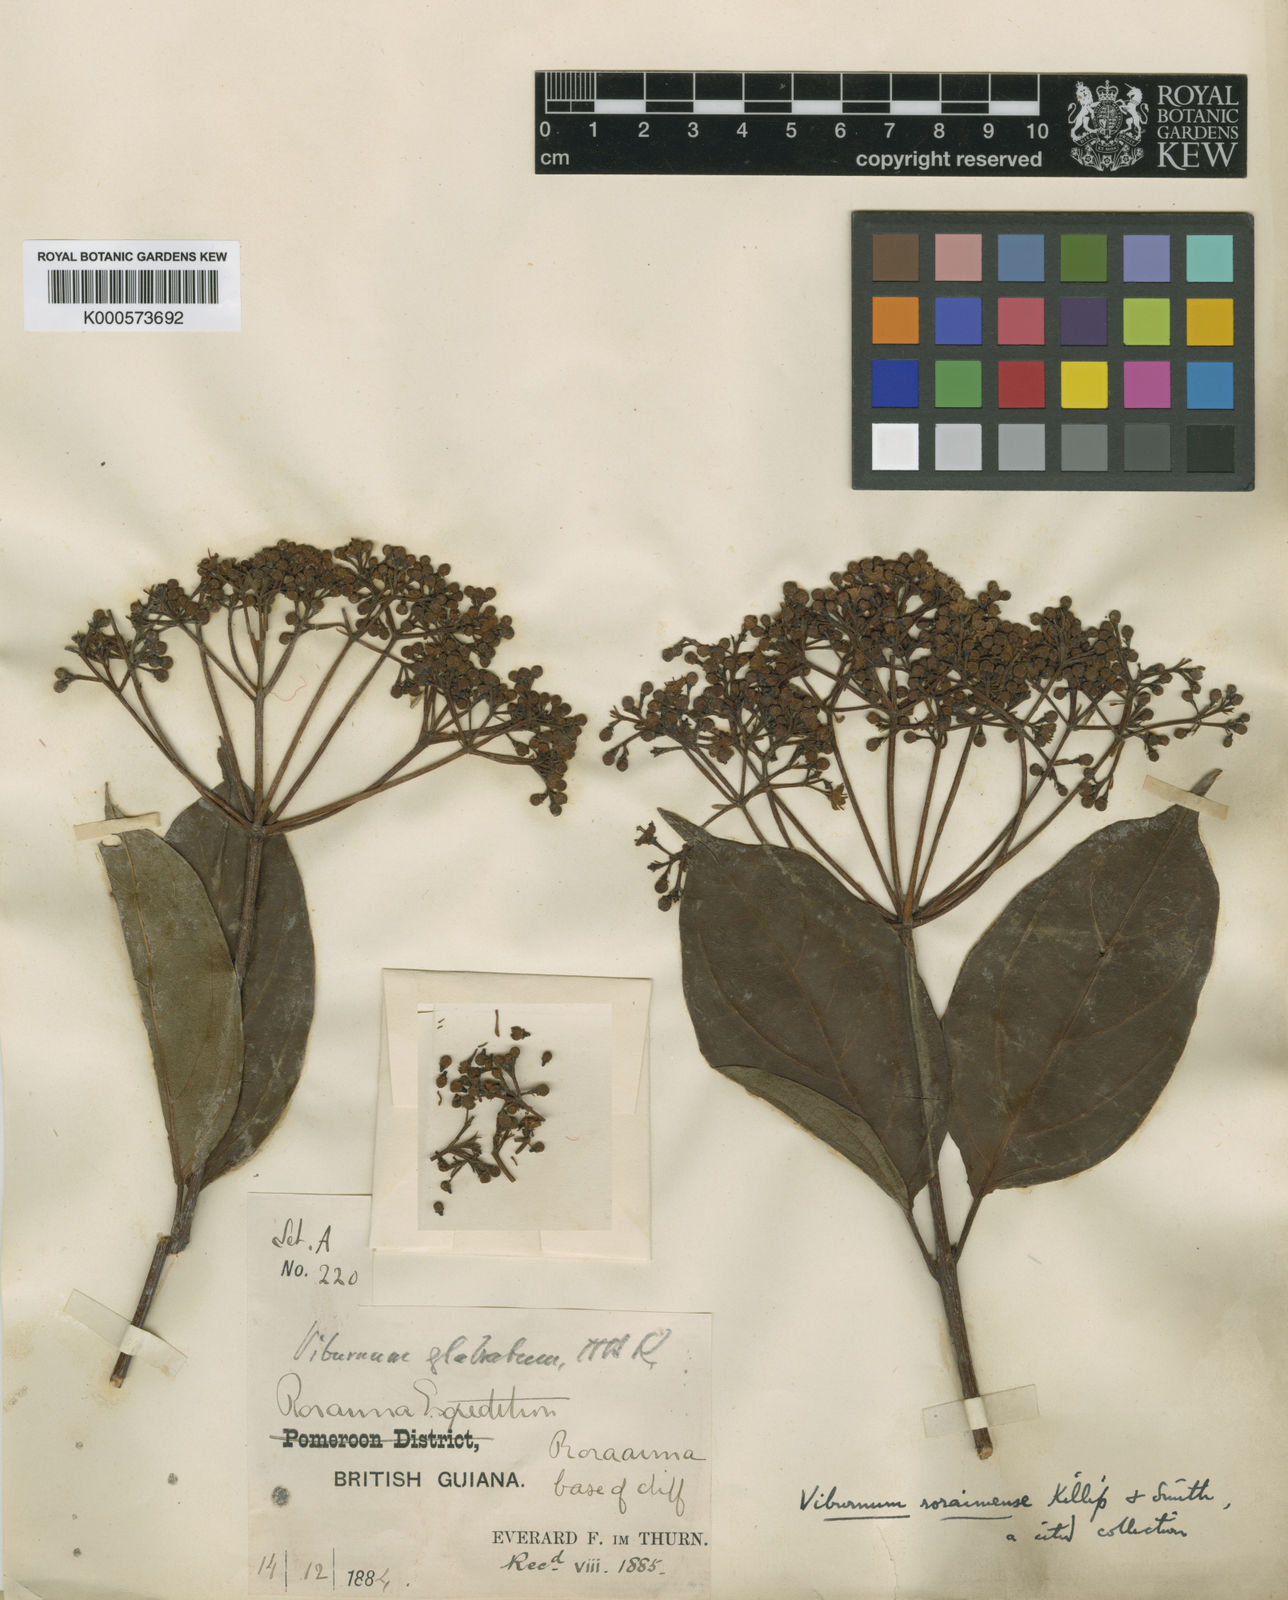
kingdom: Plantae
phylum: Tracheophyta
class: Magnoliopsida
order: Dipsacales
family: Viburnaceae
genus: Viburnum
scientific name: Viburnum tinoides
